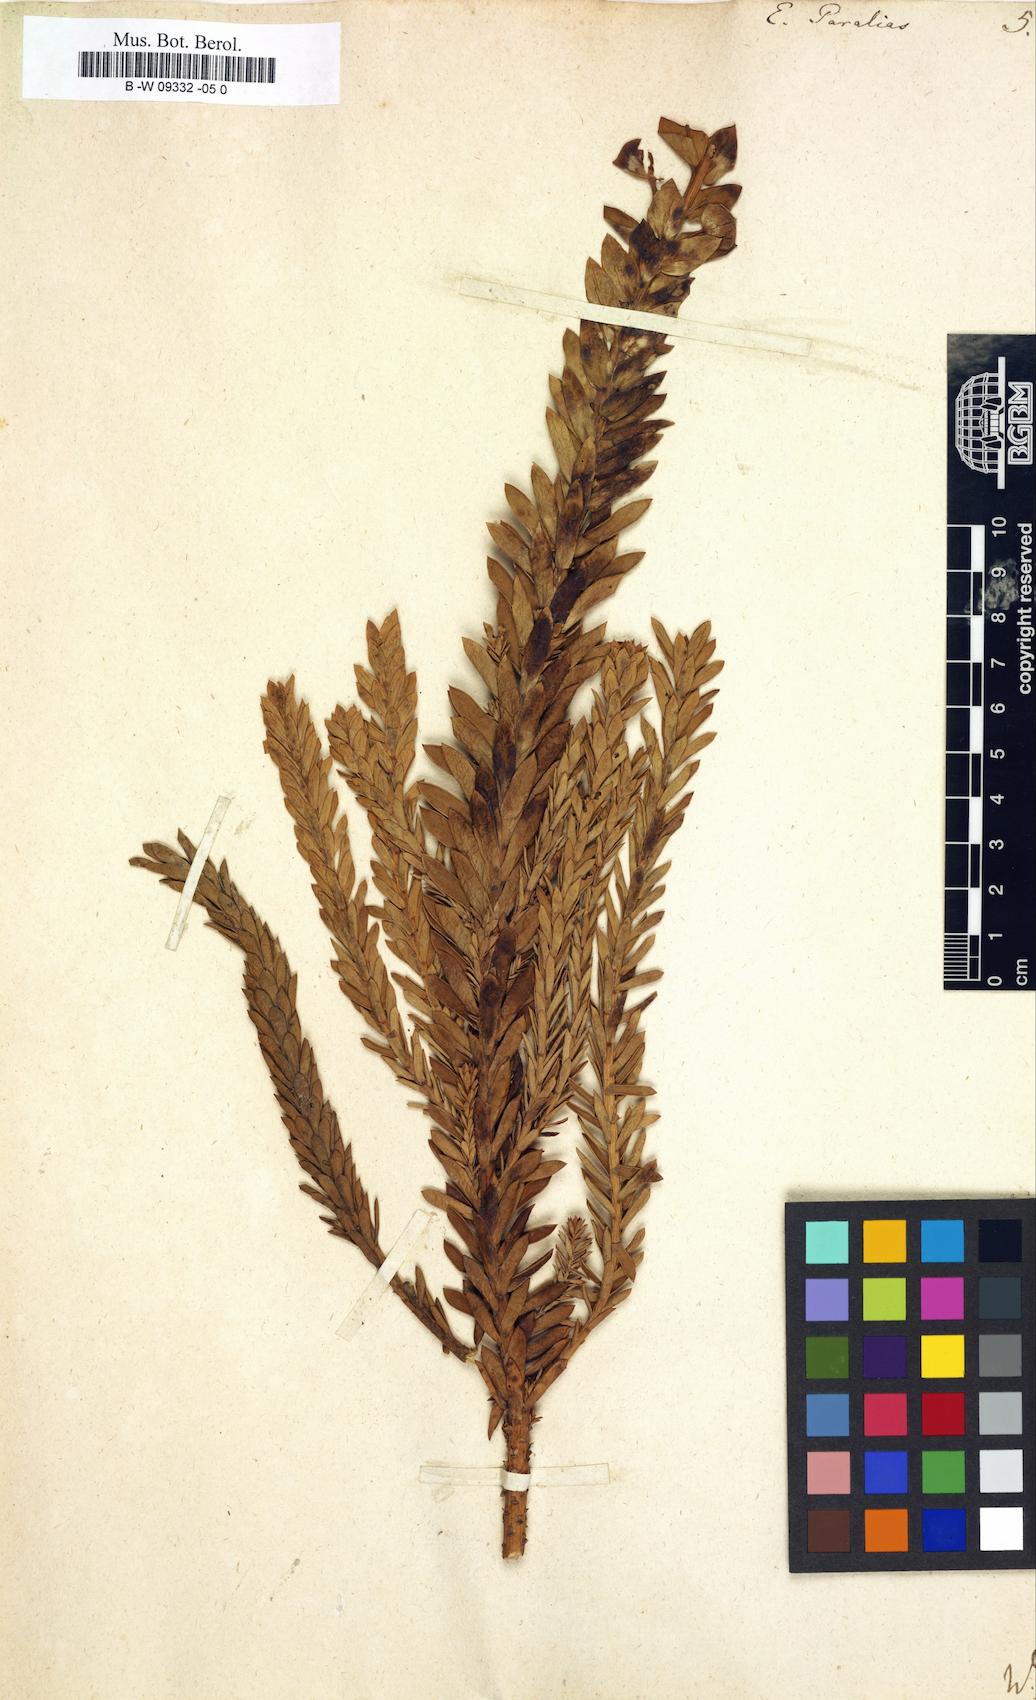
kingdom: Plantae
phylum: Tracheophyta
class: Magnoliopsida
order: Malpighiales
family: Euphorbiaceae
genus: Euphorbia
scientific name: Euphorbia paralias
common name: Sea spurge
